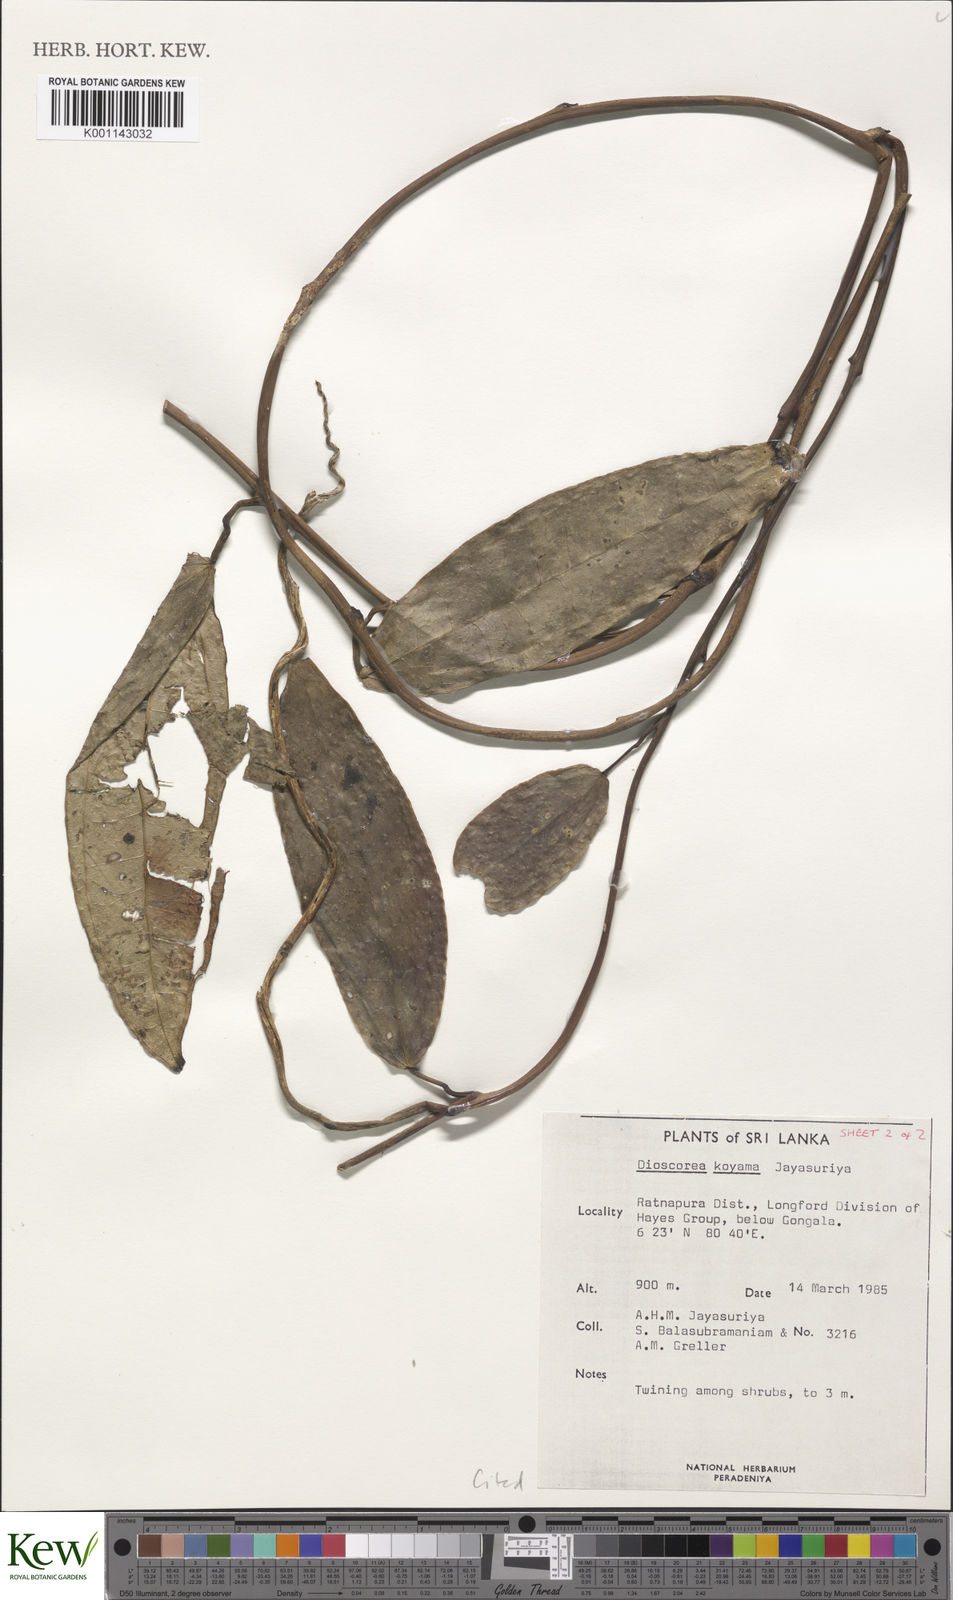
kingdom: Plantae
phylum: Tracheophyta
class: Liliopsida
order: Dioscoreales
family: Dioscoreaceae
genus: Dioscorea
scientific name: Dioscorea koyamae
